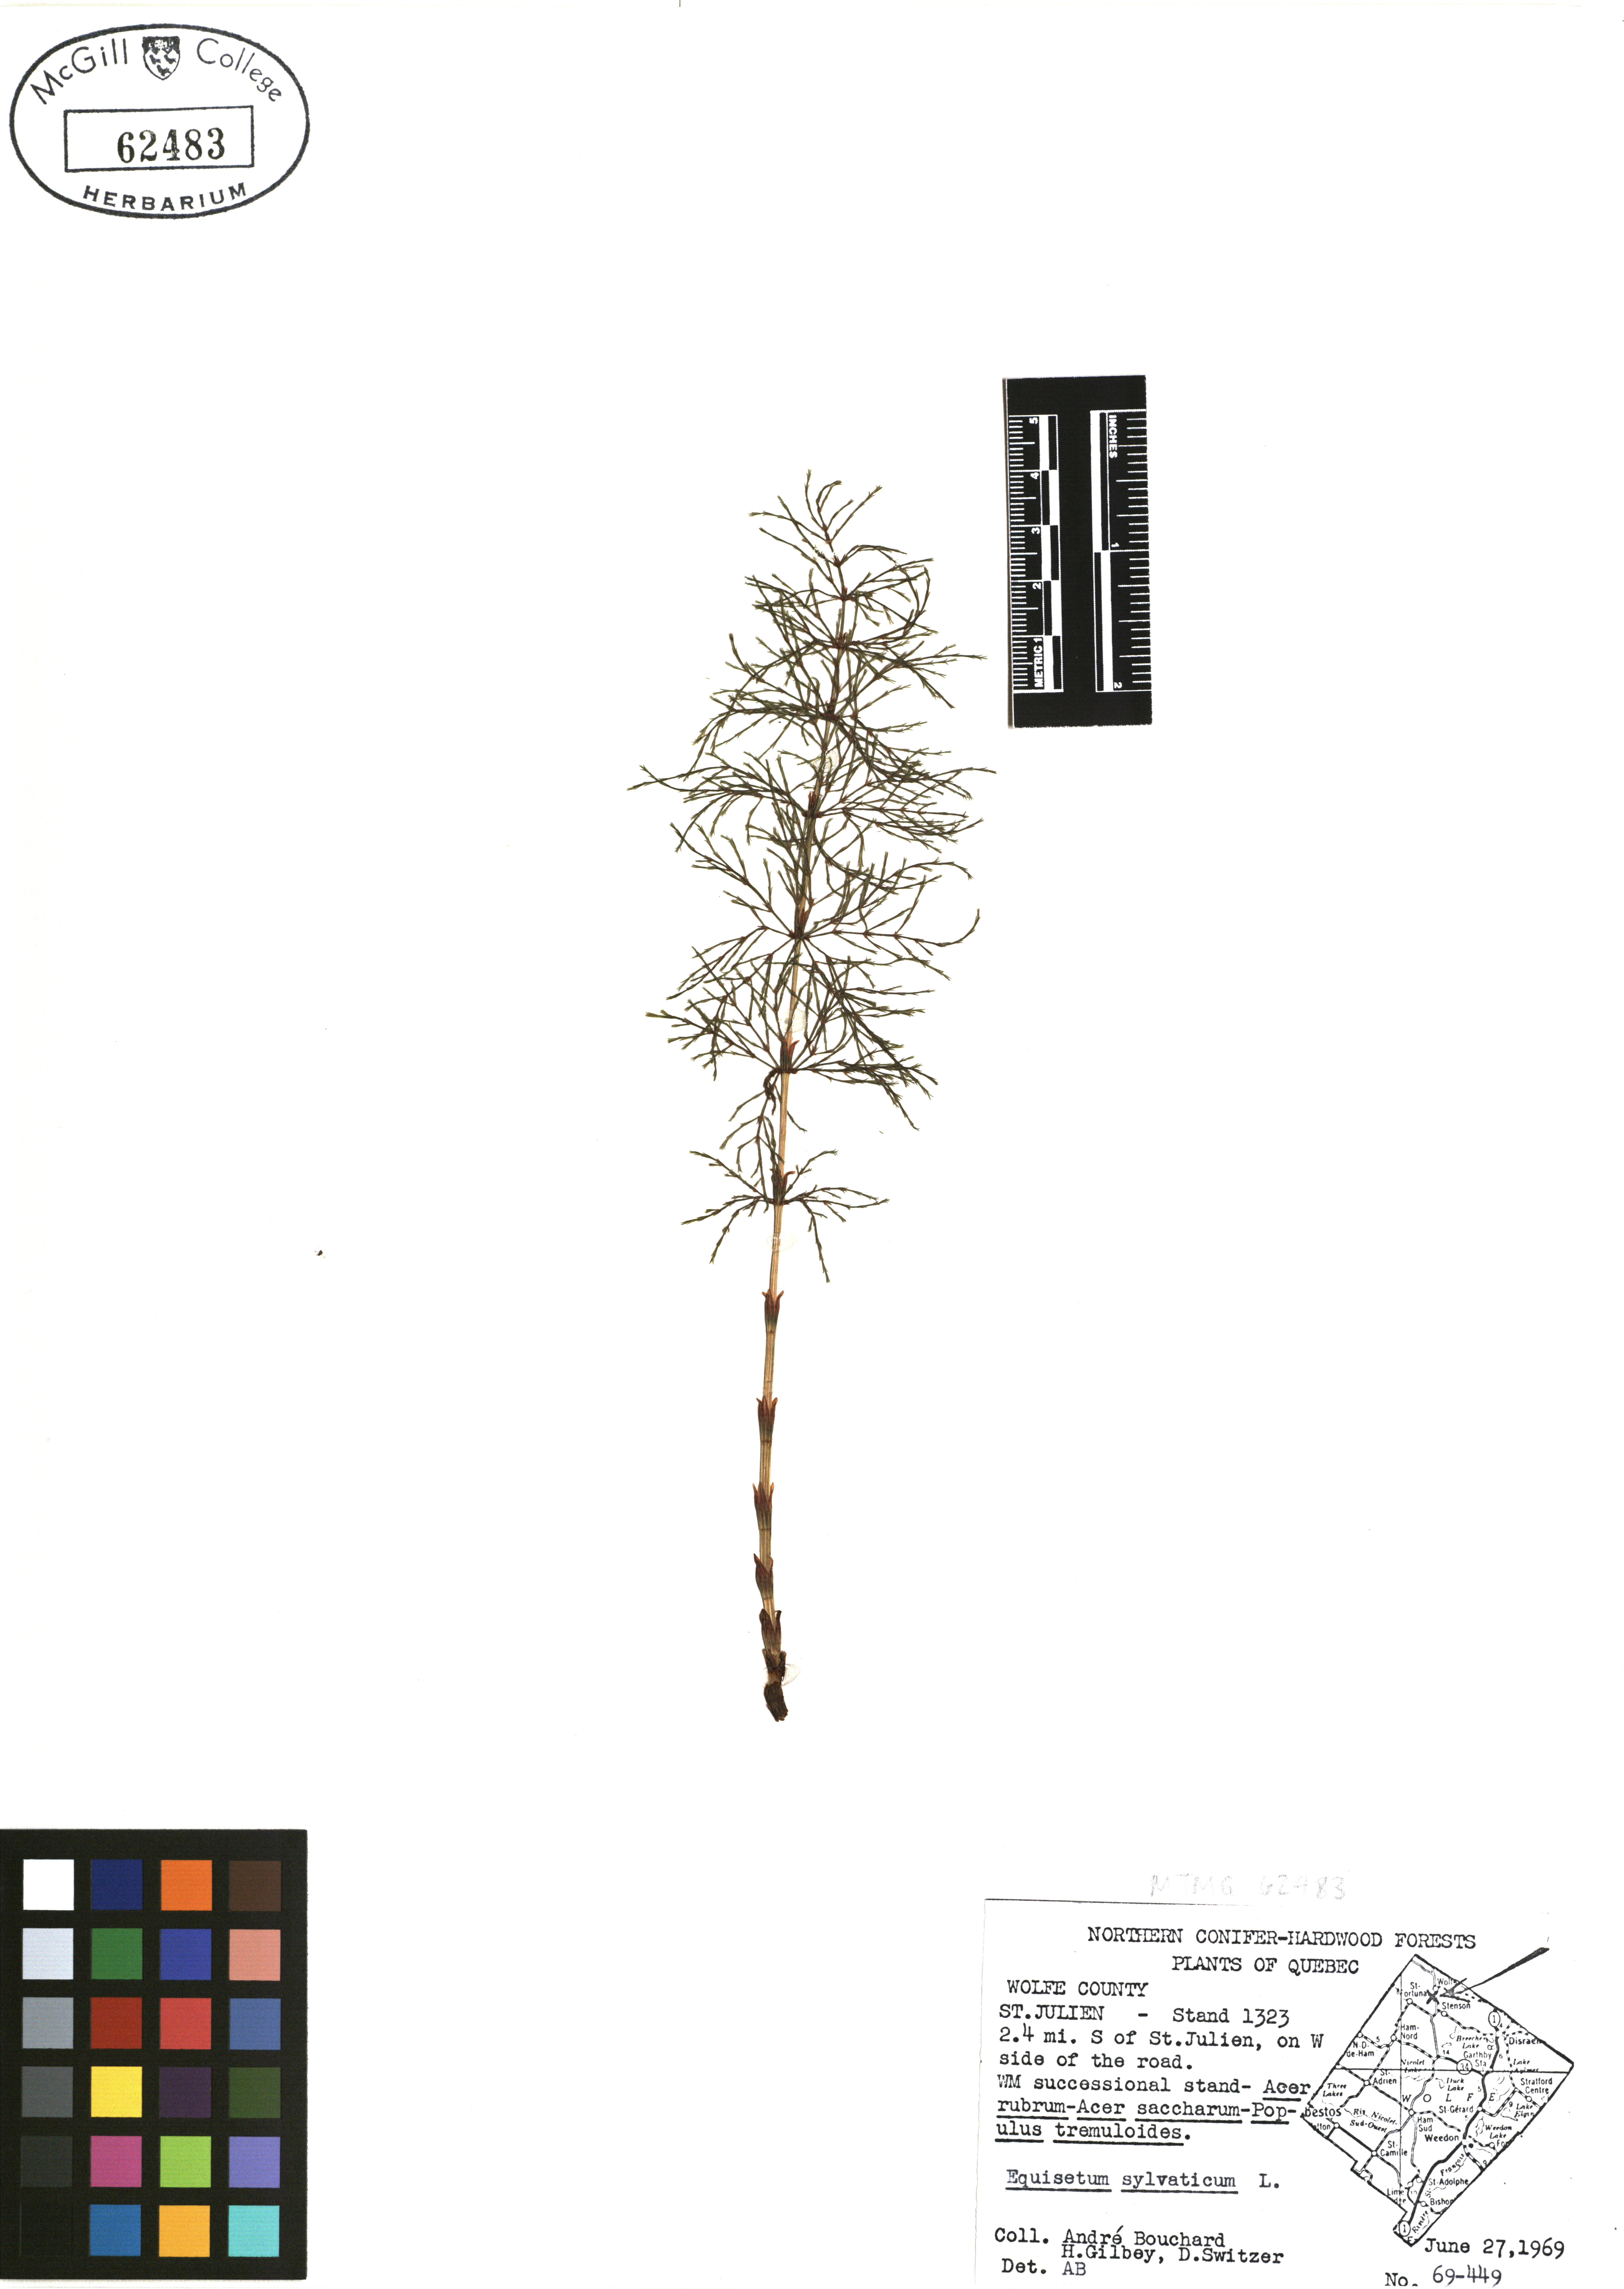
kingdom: Plantae
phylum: Tracheophyta
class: Polypodiopsida
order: Equisetales
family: Equisetaceae
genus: Equisetum
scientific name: Equisetum sylvaticum
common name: Wood horsetail
